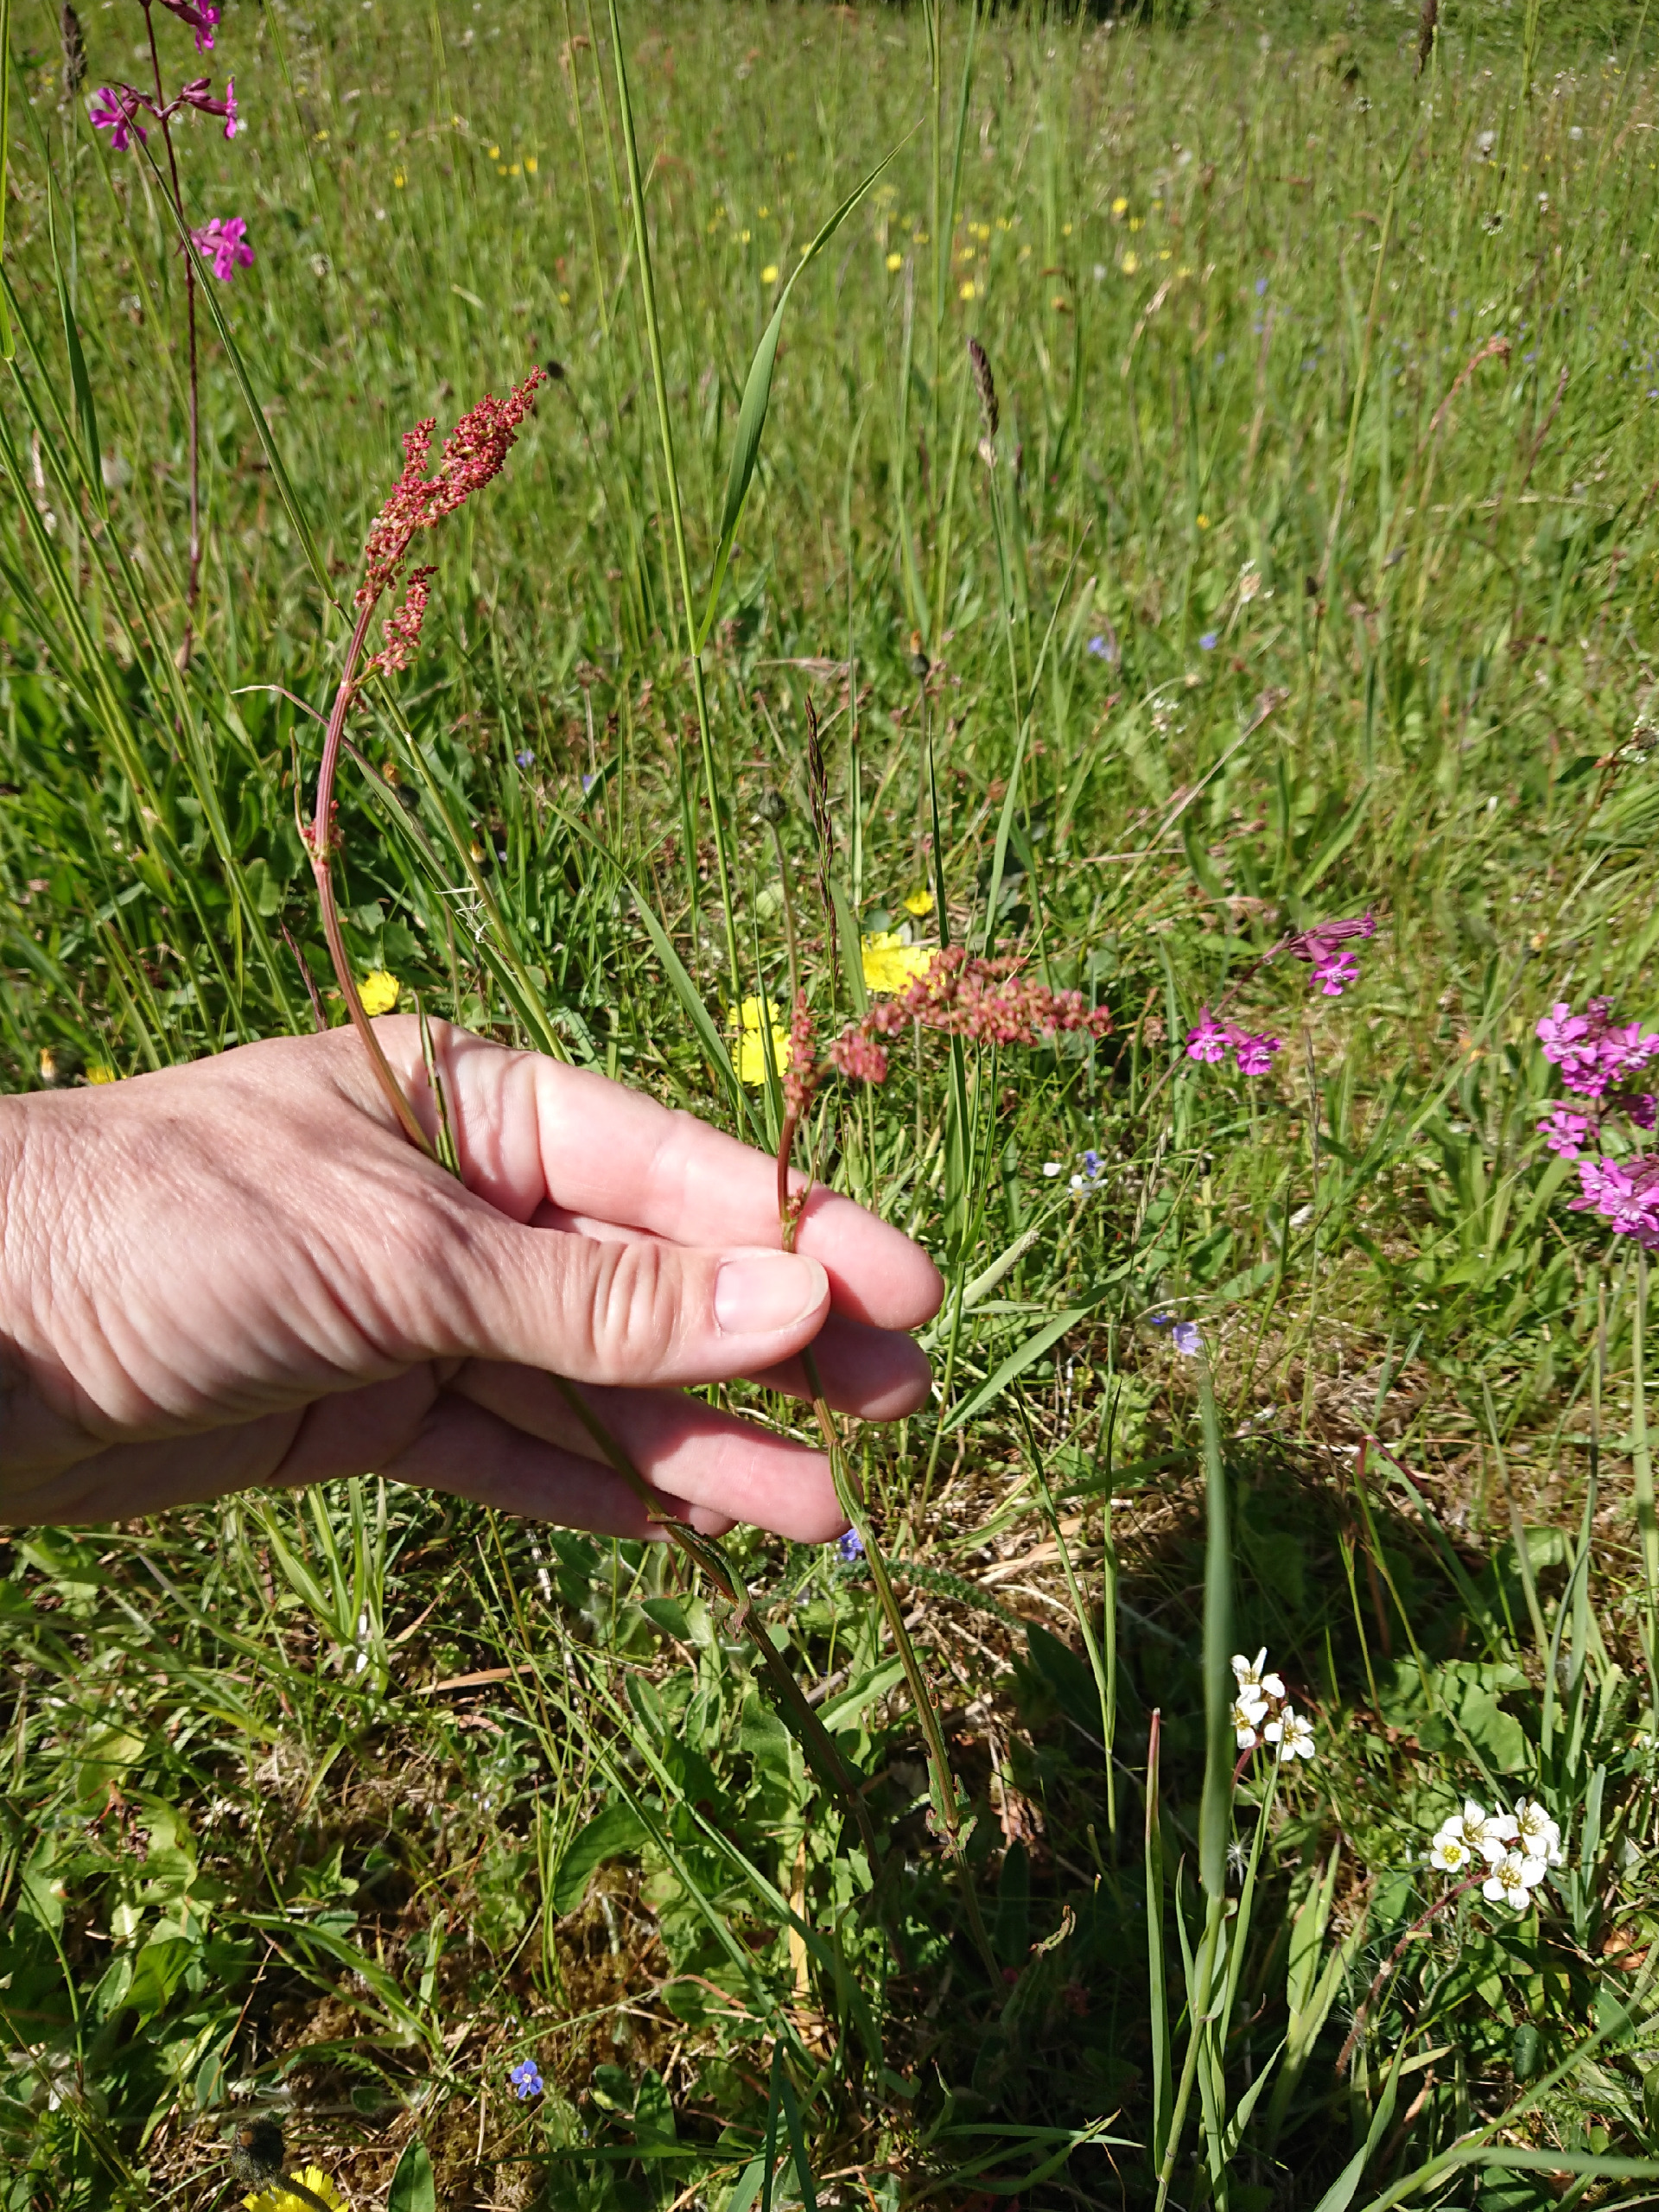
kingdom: Plantae
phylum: Tracheophyta
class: Magnoliopsida
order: Caryophyllales
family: Polygonaceae
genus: Rumex
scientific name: Rumex acetosa
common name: Almindelig syre
